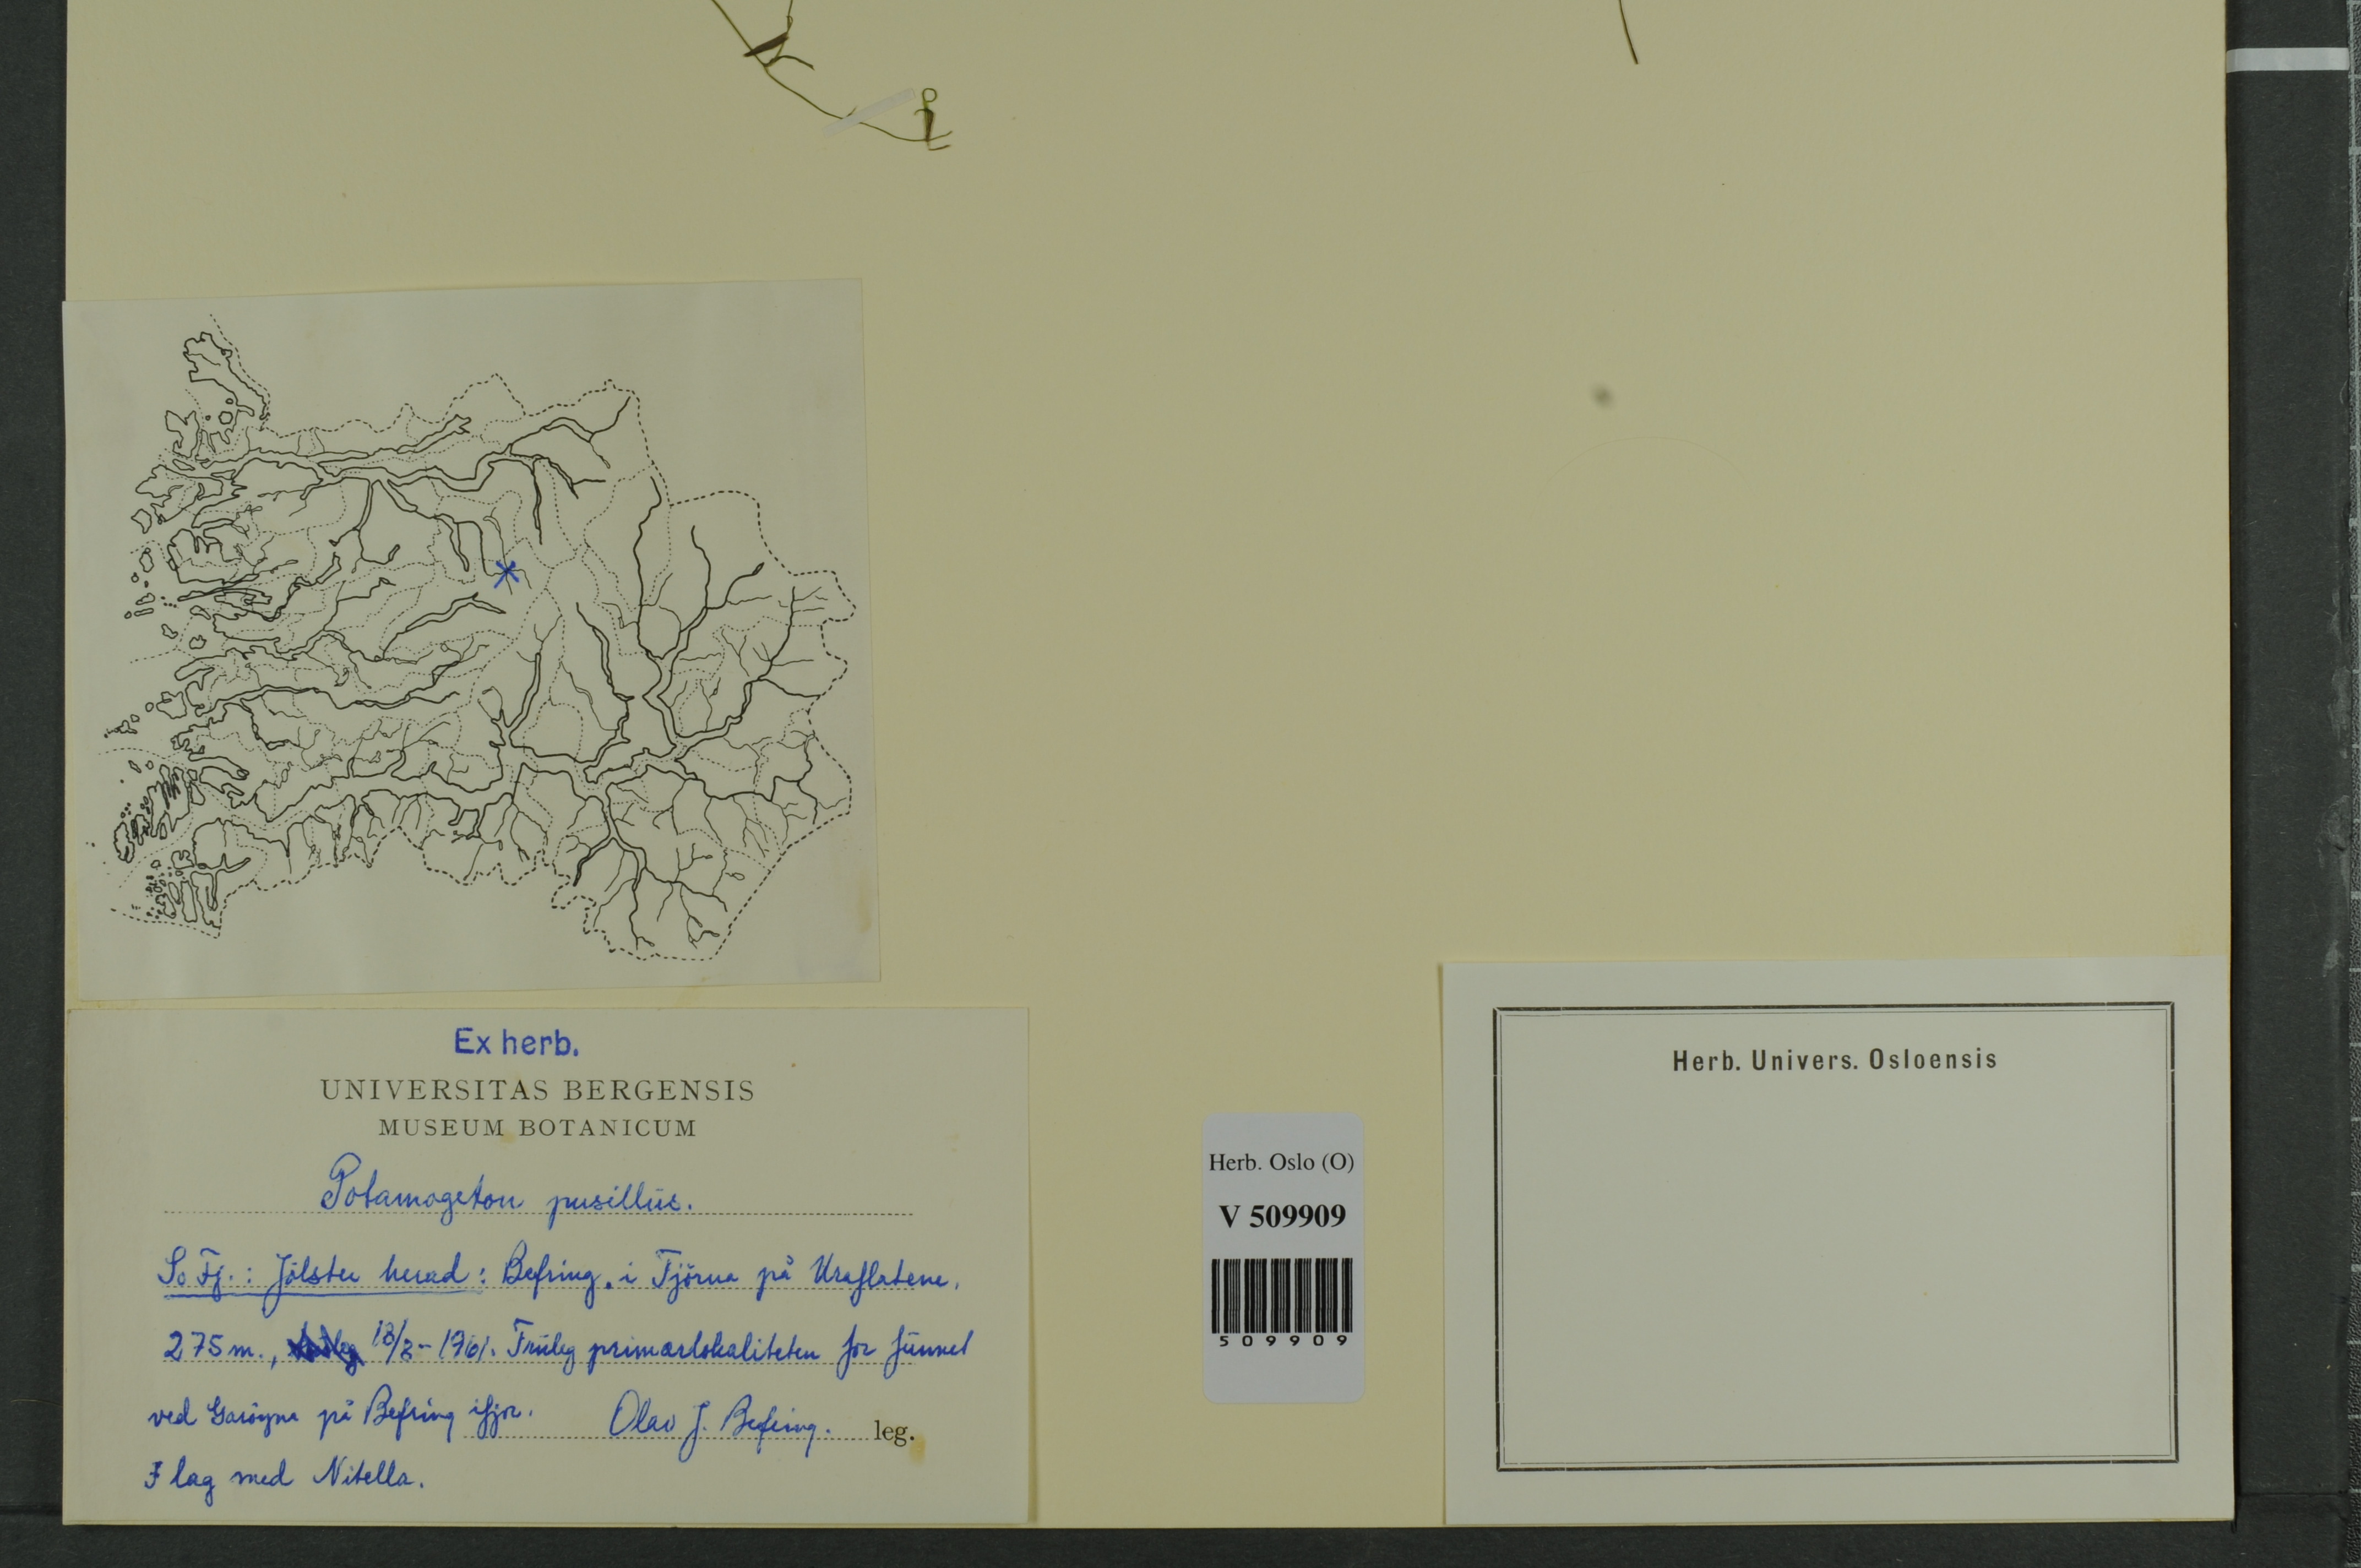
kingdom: Plantae
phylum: Tracheophyta
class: Liliopsida
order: Alismatales
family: Potamogetonaceae
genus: Potamogeton
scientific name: Potamogeton berchtoldii
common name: Small pondweed
